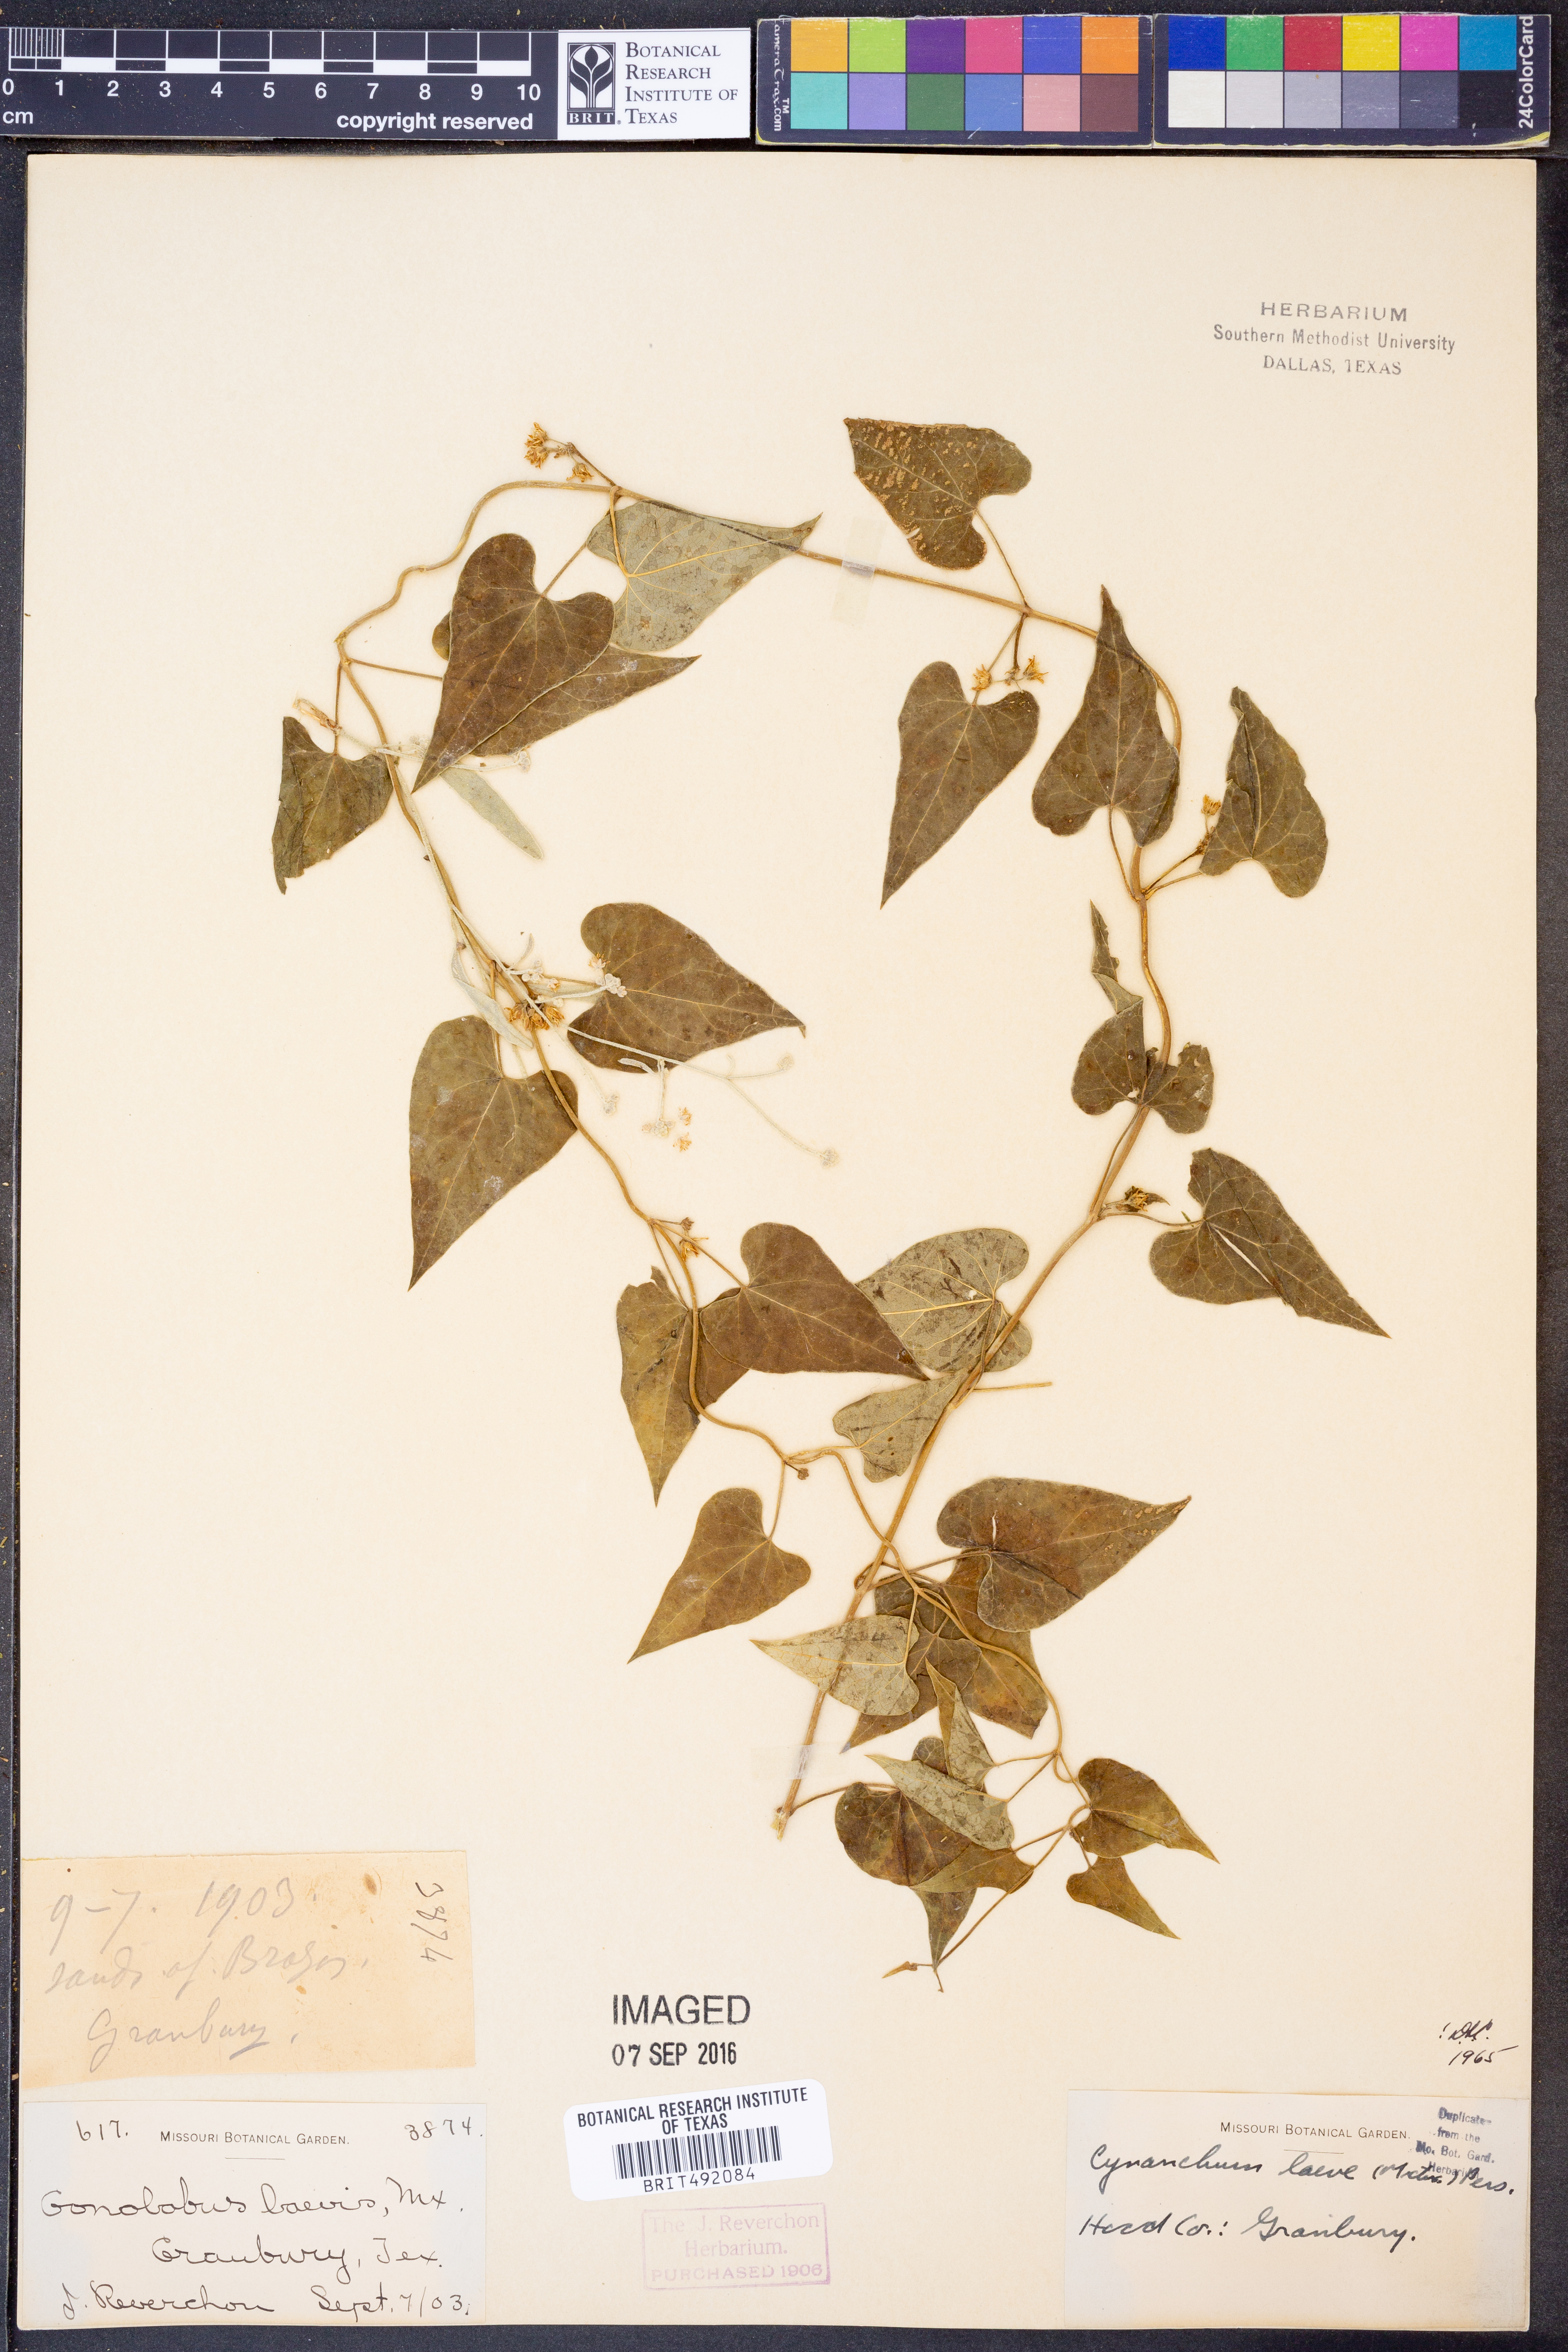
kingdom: Plantae
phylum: Tracheophyta
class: Magnoliopsida
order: Gentianales
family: Apocynaceae
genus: Cynanchum
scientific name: Cynanchum laeve
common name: Sandvine
